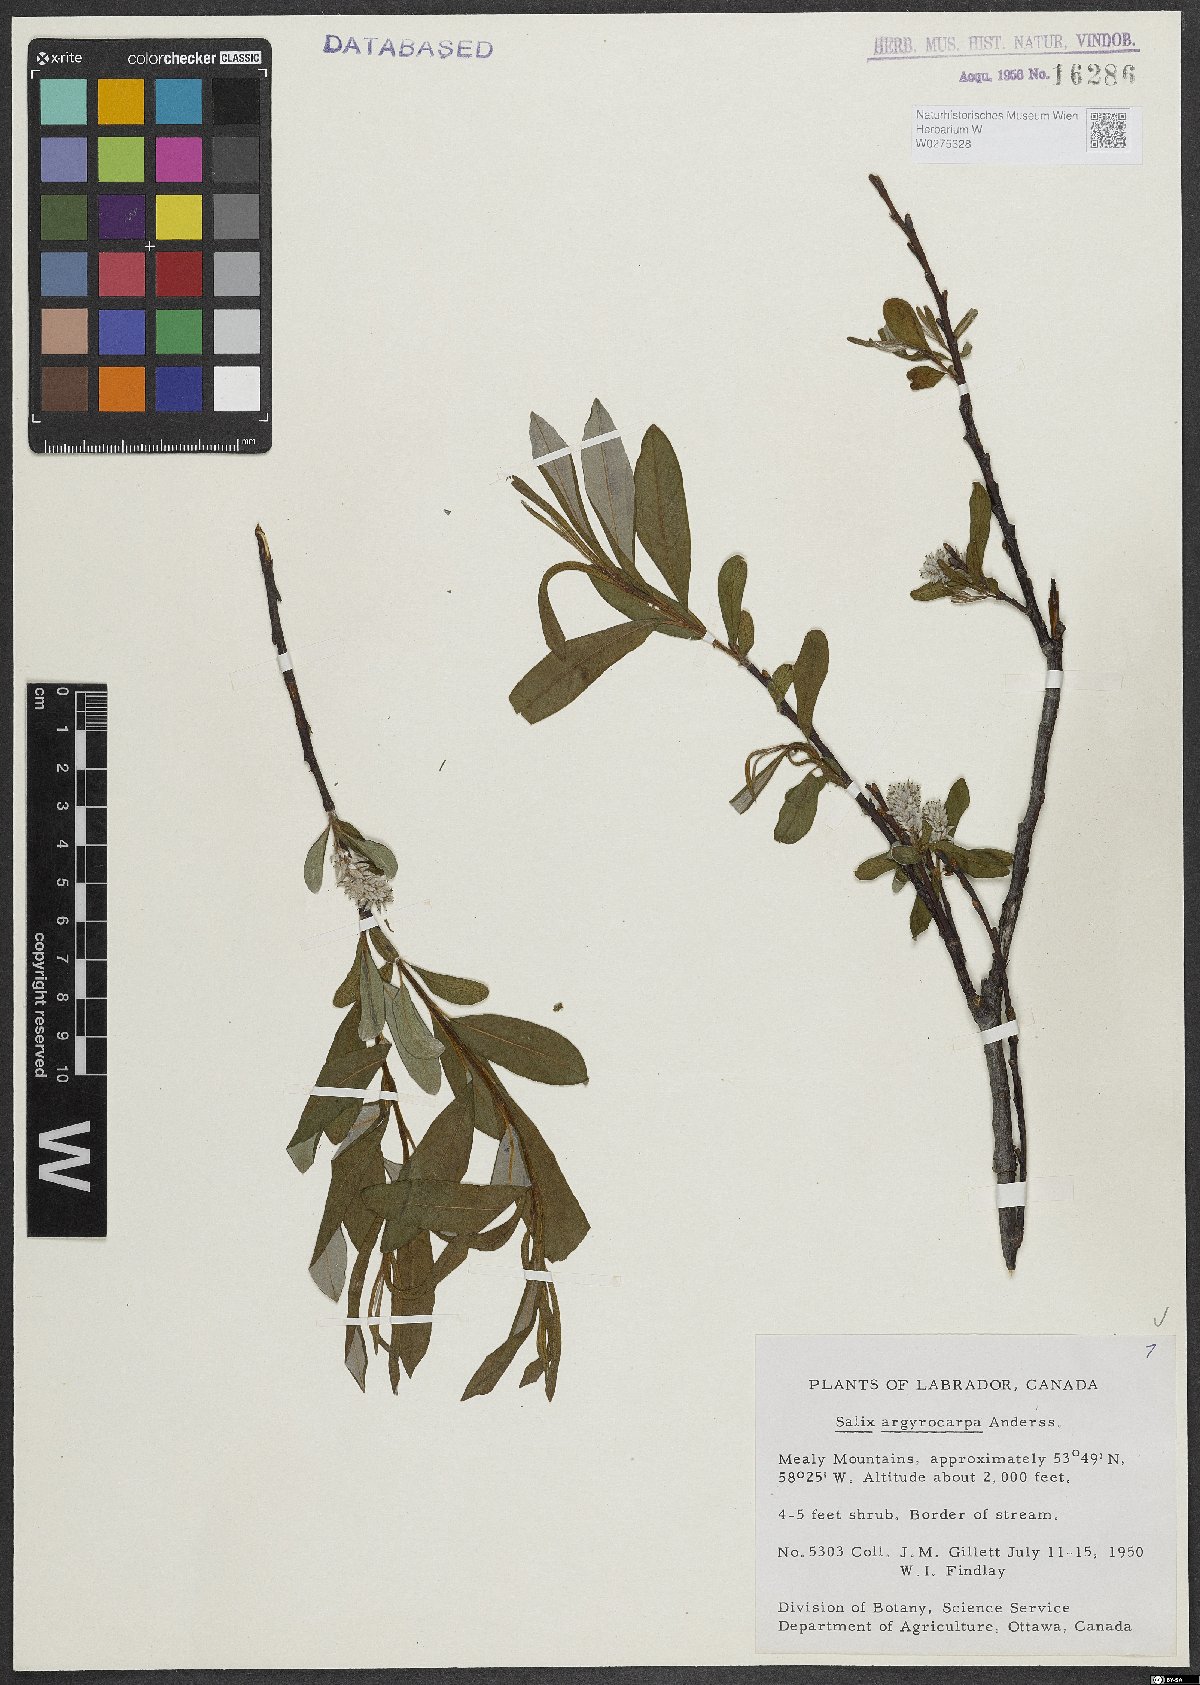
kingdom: Plantae
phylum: Tracheophyta
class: Magnoliopsida
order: Malpighiales
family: Salicaceae
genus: Salix
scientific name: Salix argyrocarpa
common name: Labrador willow
